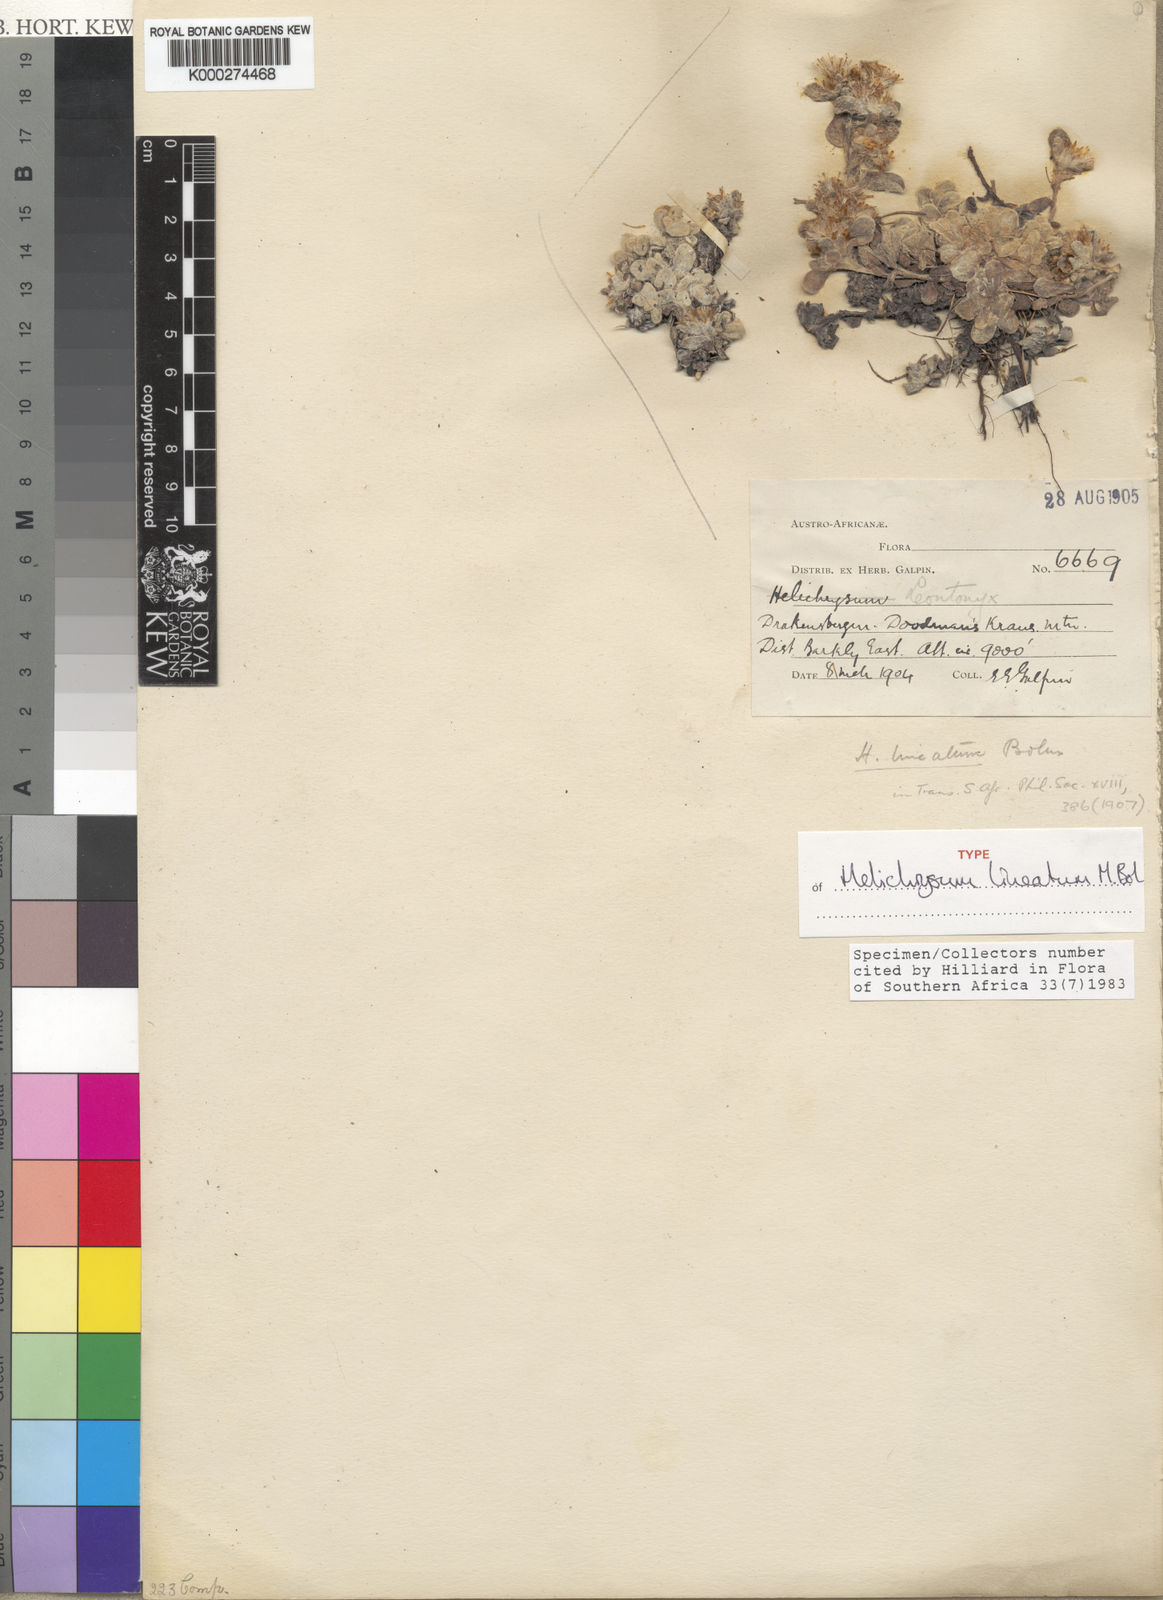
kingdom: Plantae
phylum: Tracheophyta
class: Magnoliopsida
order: Asterales
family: Asteraceae
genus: Helichrysum
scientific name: Helichrysum lineatum
